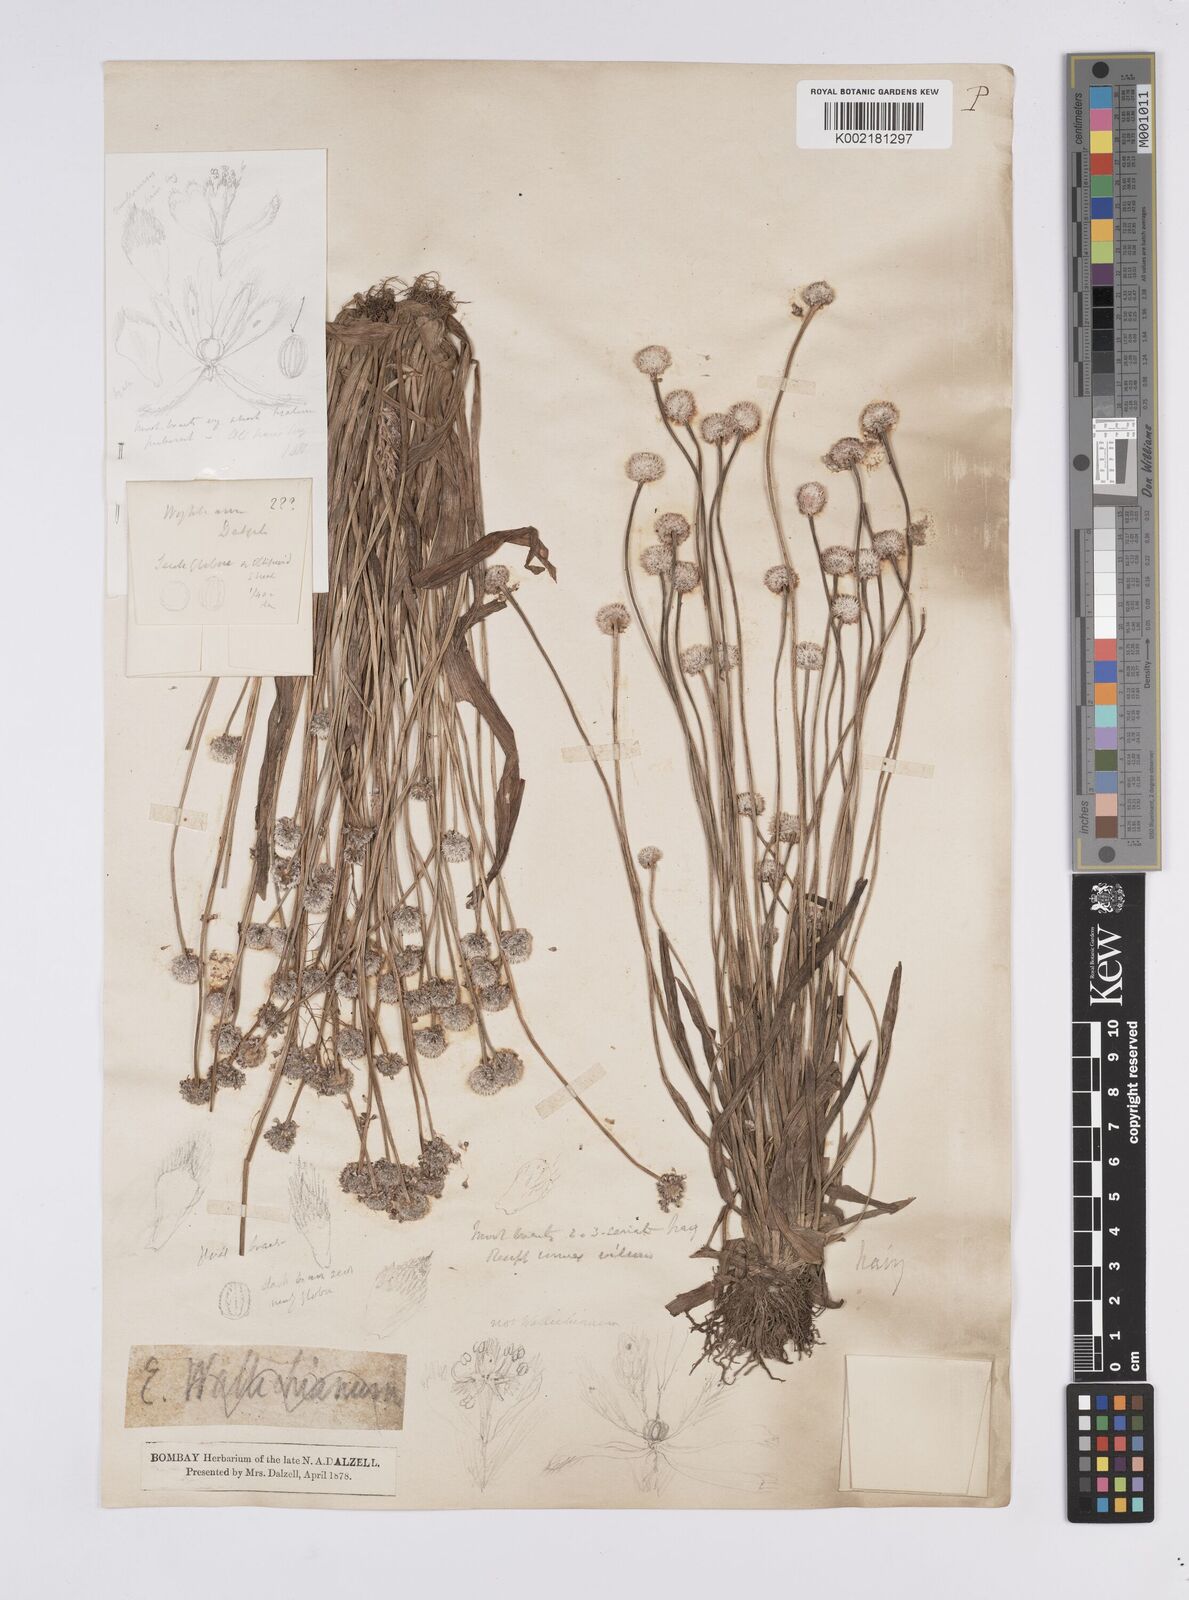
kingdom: Plantae
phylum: Tracheophyta
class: Liliopsida
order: Poales
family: Eriocaulaceae
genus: Eriocaulon
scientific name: Eriocaulon robustobrownianum
